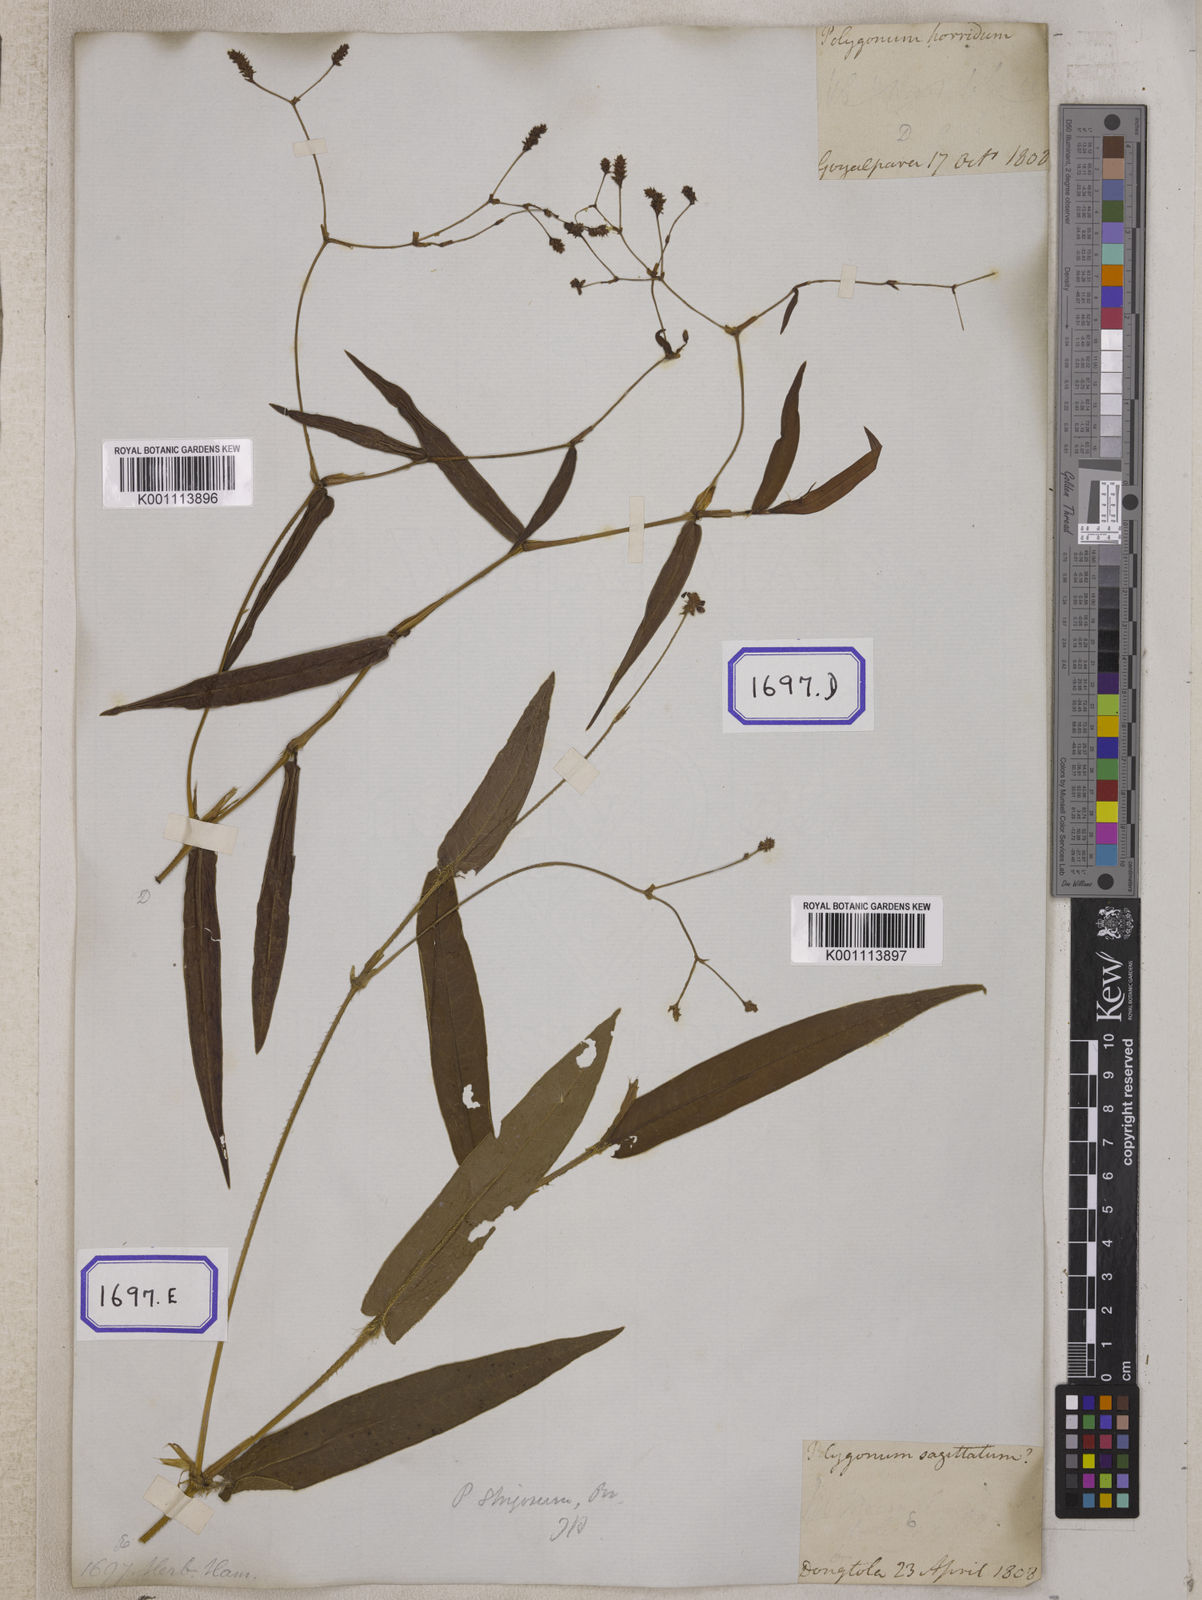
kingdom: Plantae
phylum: Tracheophyta
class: Magnoliopsida
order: Caryophyllales
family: Polygonaceae
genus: Persicaria
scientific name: Persicaria muricata
